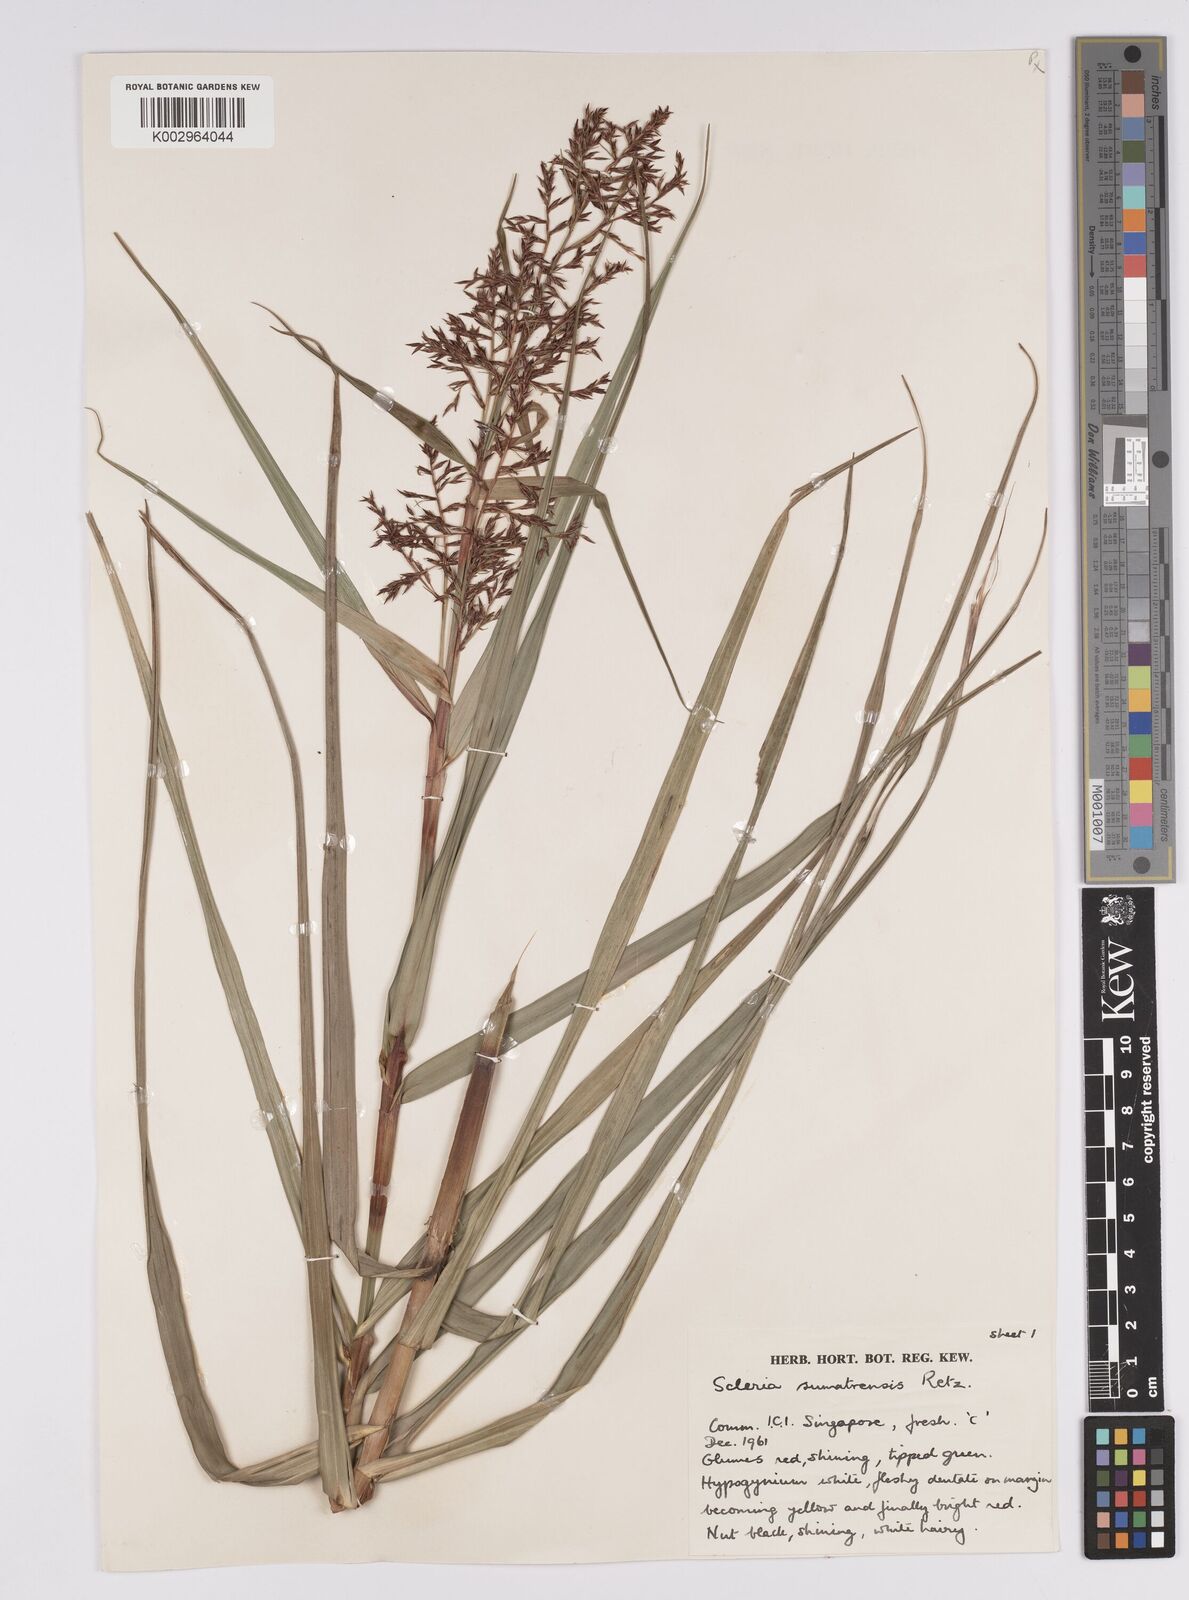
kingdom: Plantae
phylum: Tracheophyta
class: Liliopsida
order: Poales
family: Cyperaceae
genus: Scleria
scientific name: Scleria sumatrensis
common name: Sumatran scleria
